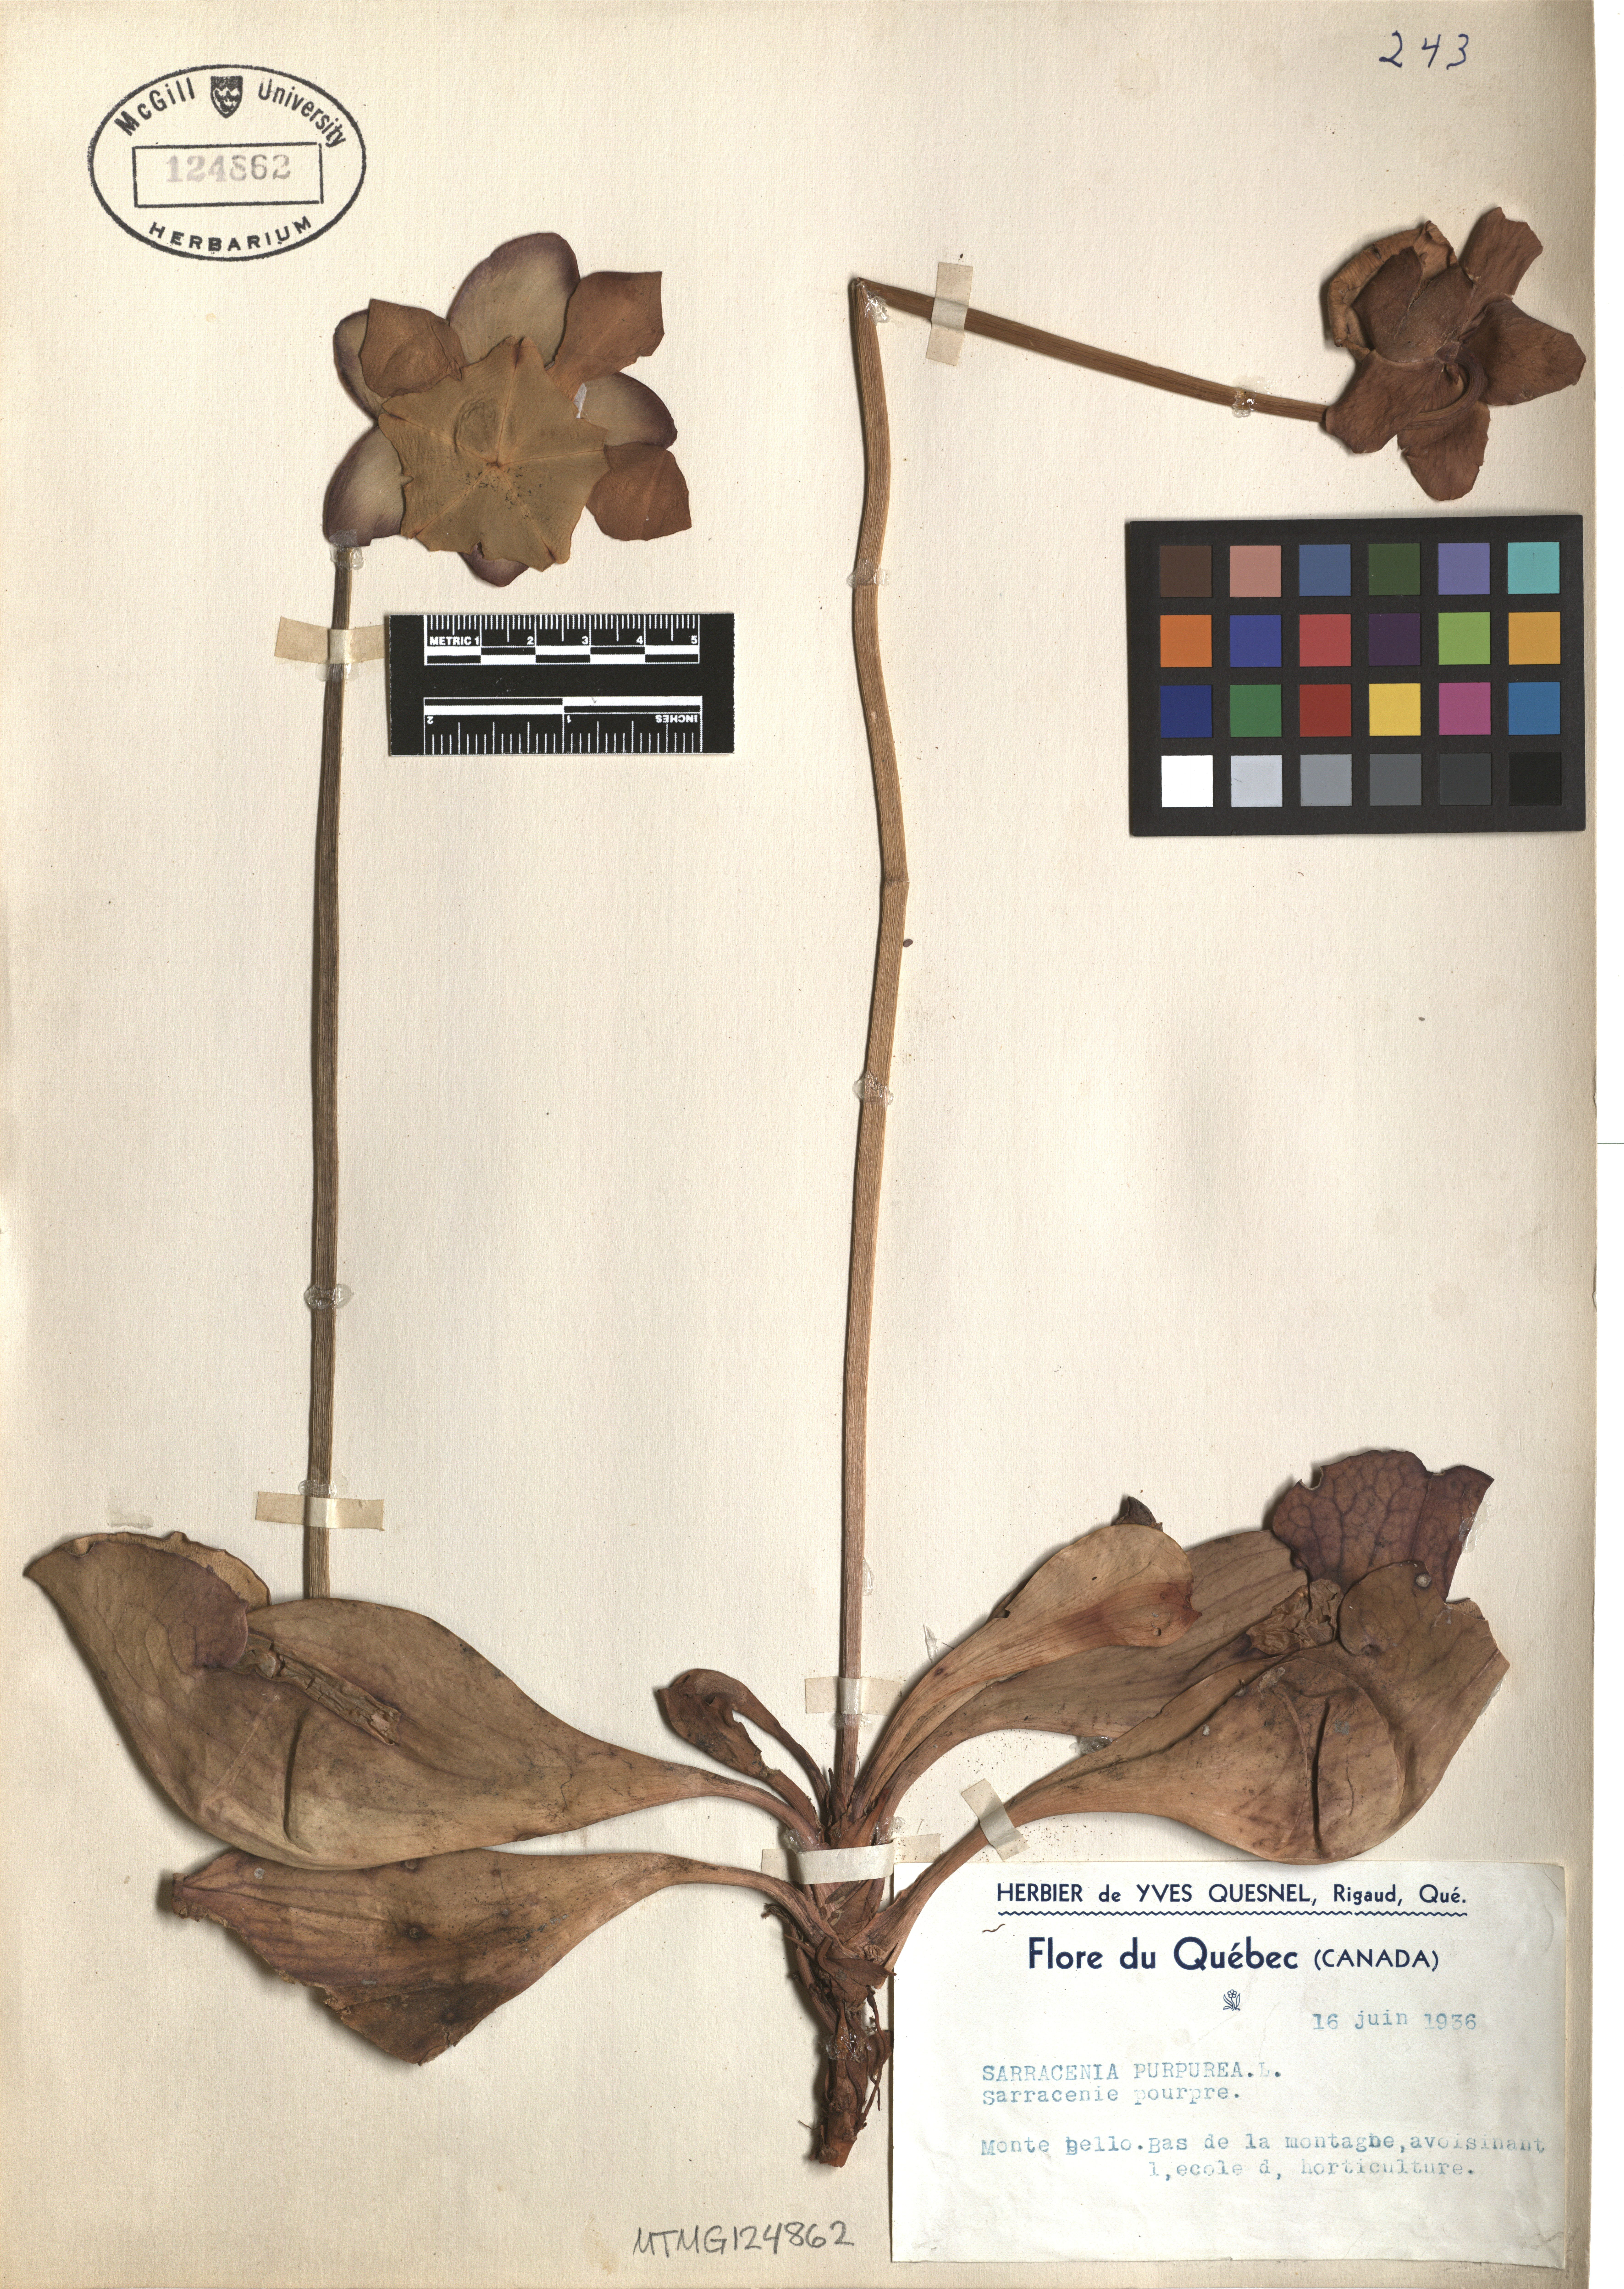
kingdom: Plantae
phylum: Tracheophyta
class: Magnoliopsida
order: Ericales
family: Sarraceniaceae
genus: Sarracenia
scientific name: Sarracenia purpurea
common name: Pitcherplant
